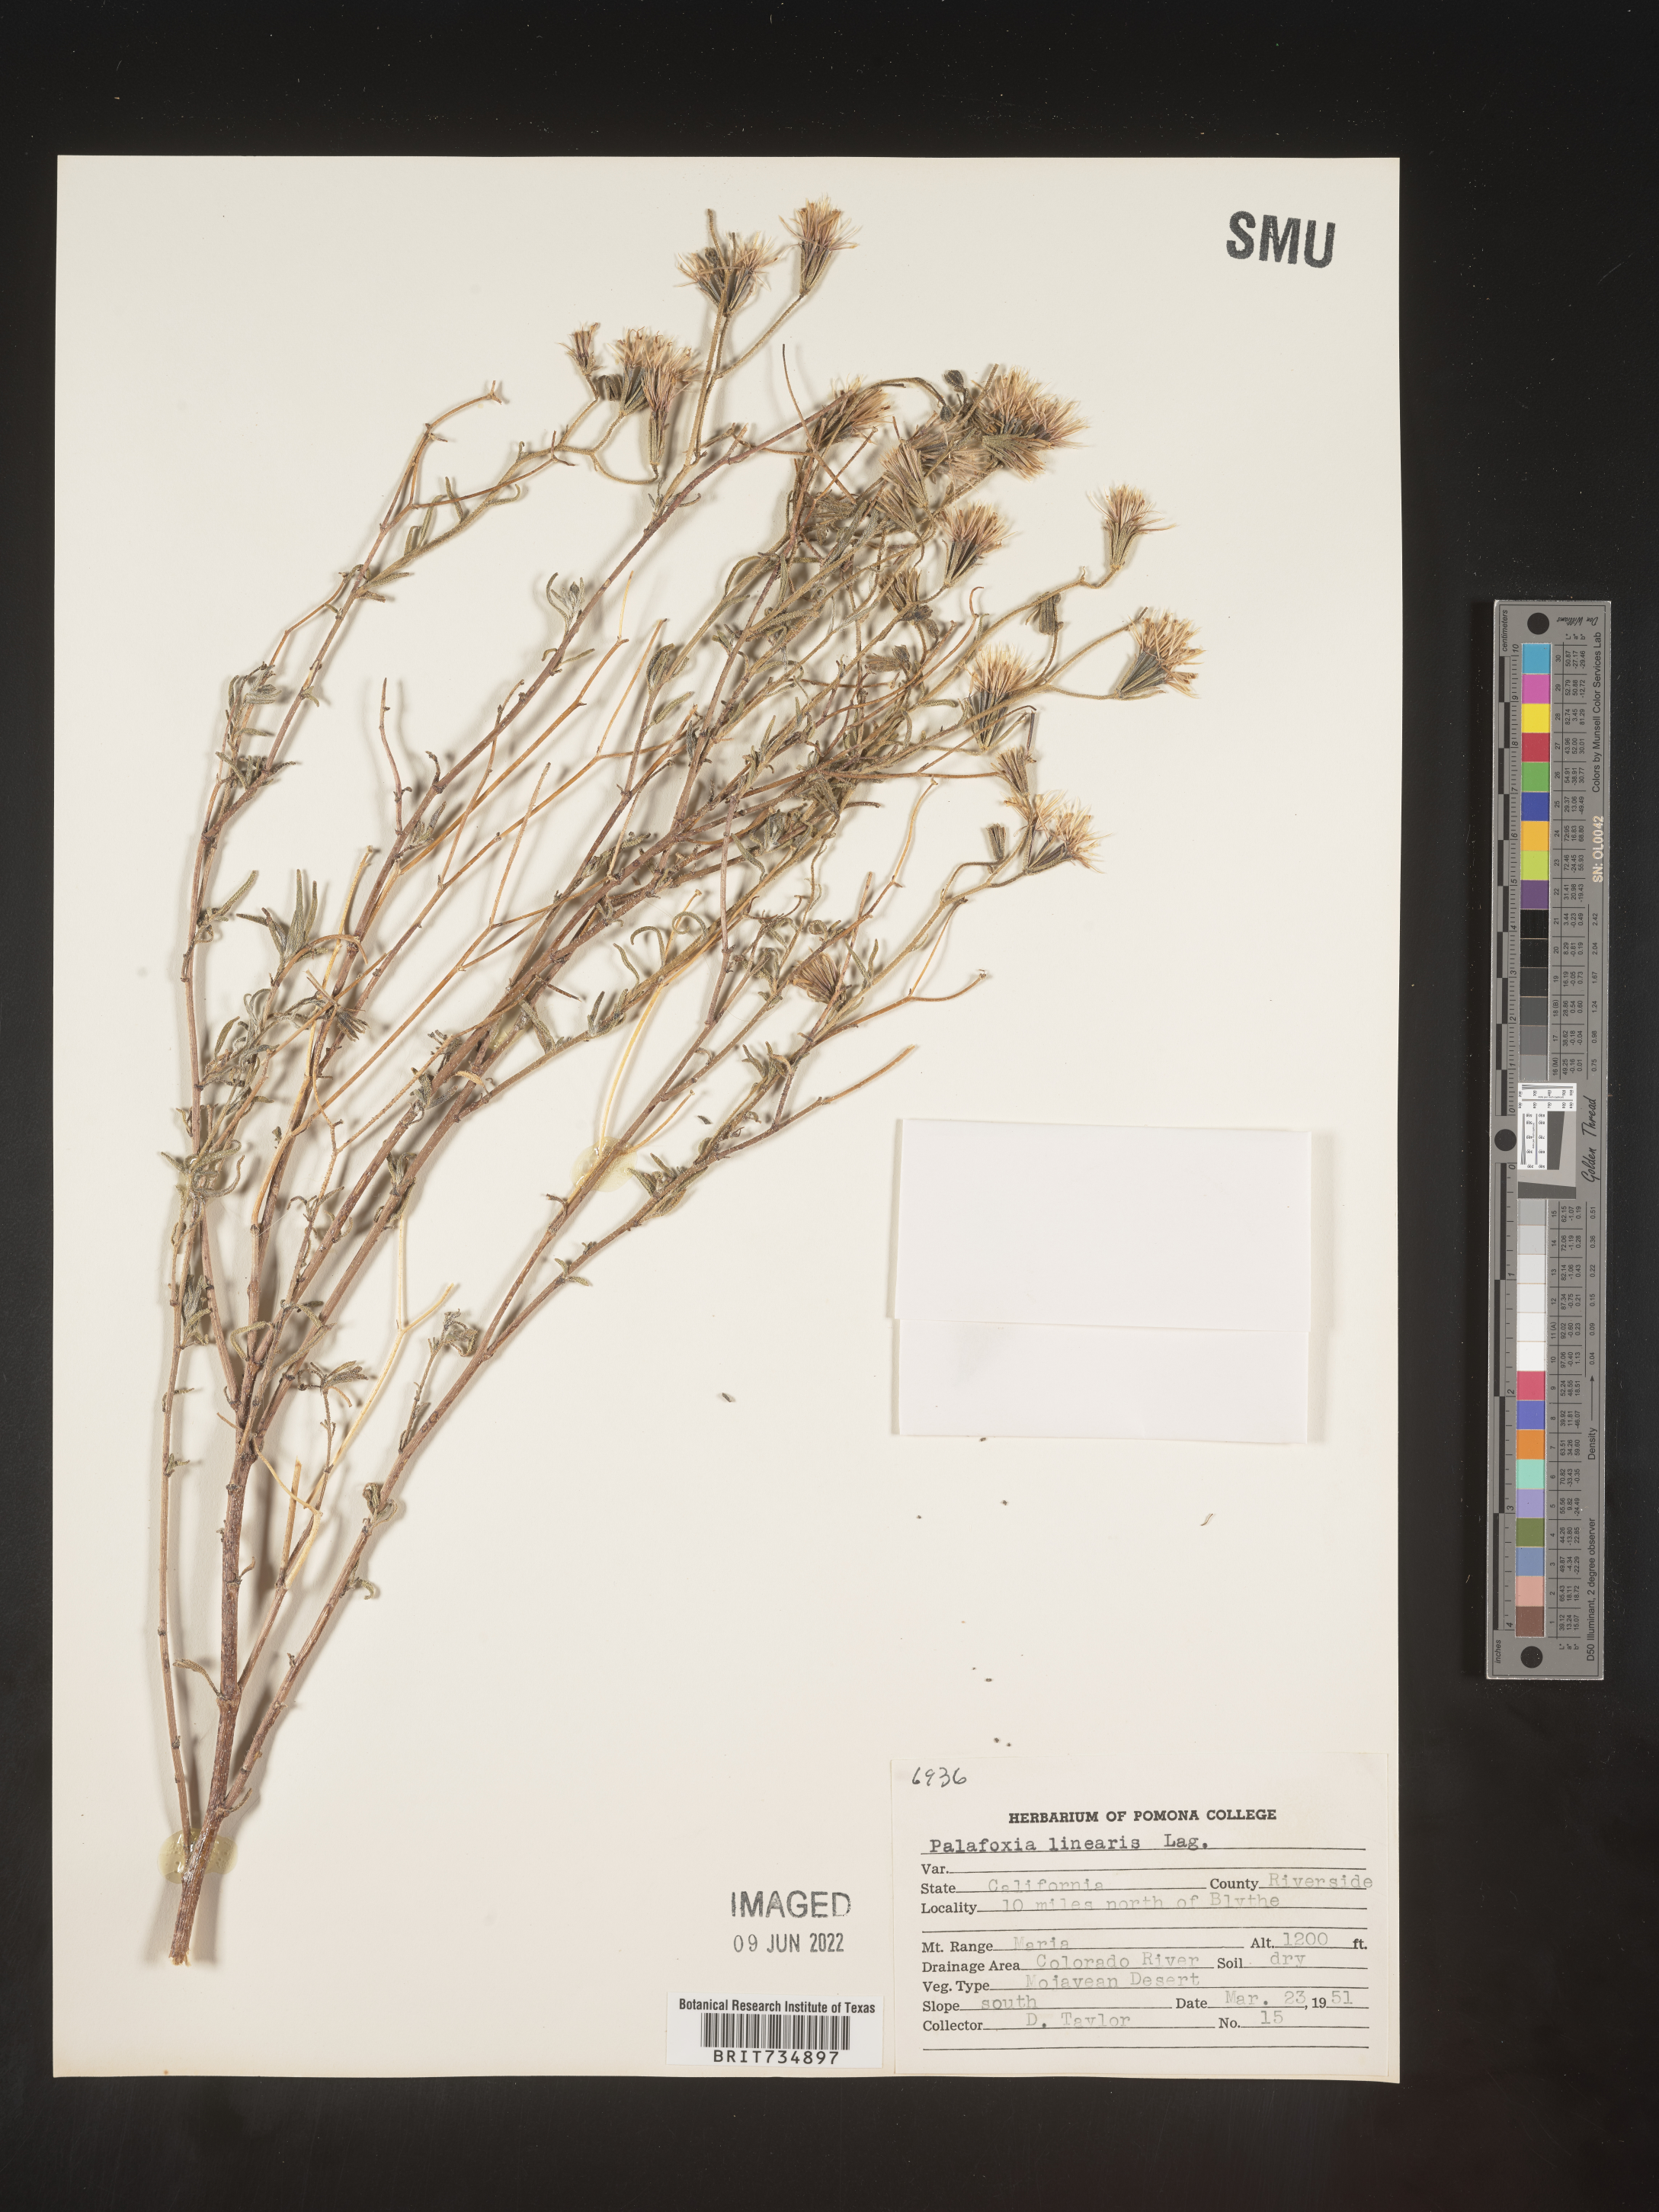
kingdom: Plantae
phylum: Tracheophyta
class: Magnoliopsida
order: Asterales
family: Asteraceae
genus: Palafoxia
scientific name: Palafoxia linearis
